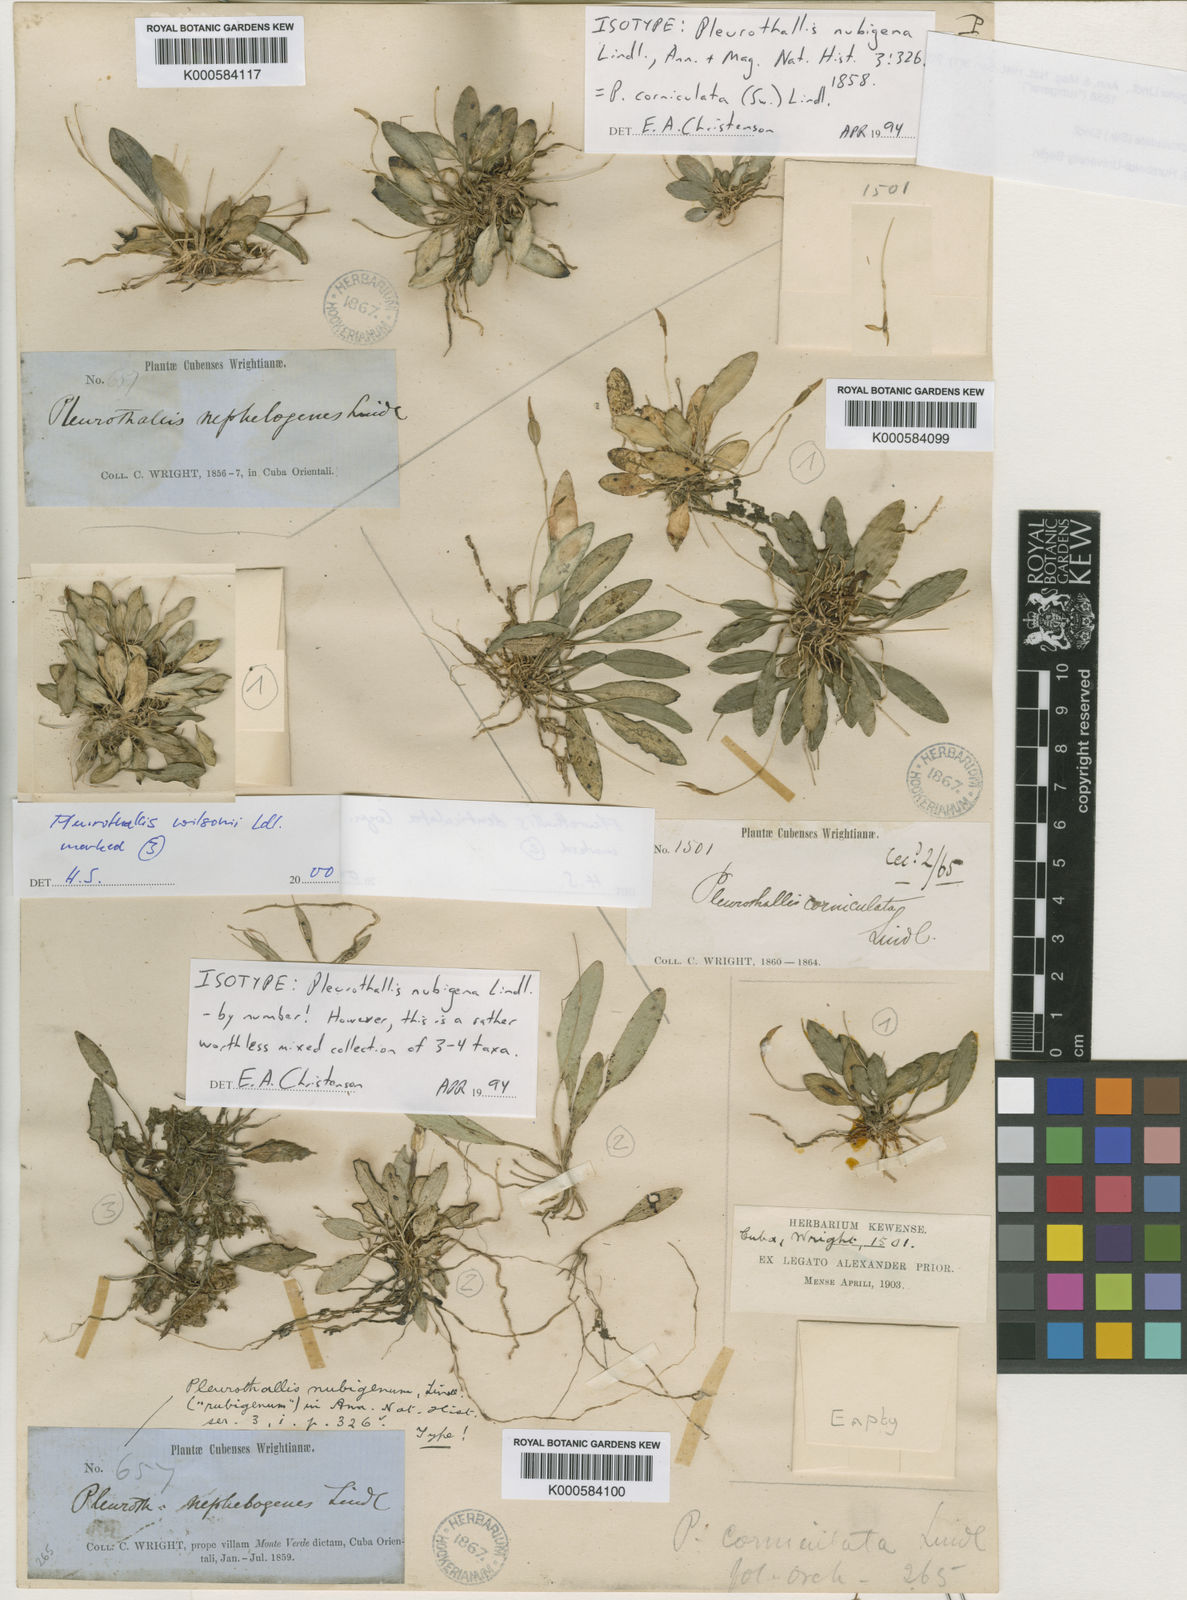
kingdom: Plantae
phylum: Tracheophyta
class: Liliopsida
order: Asparagales
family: Orchidaceae
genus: Specklinia
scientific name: Specklinia corniculata
